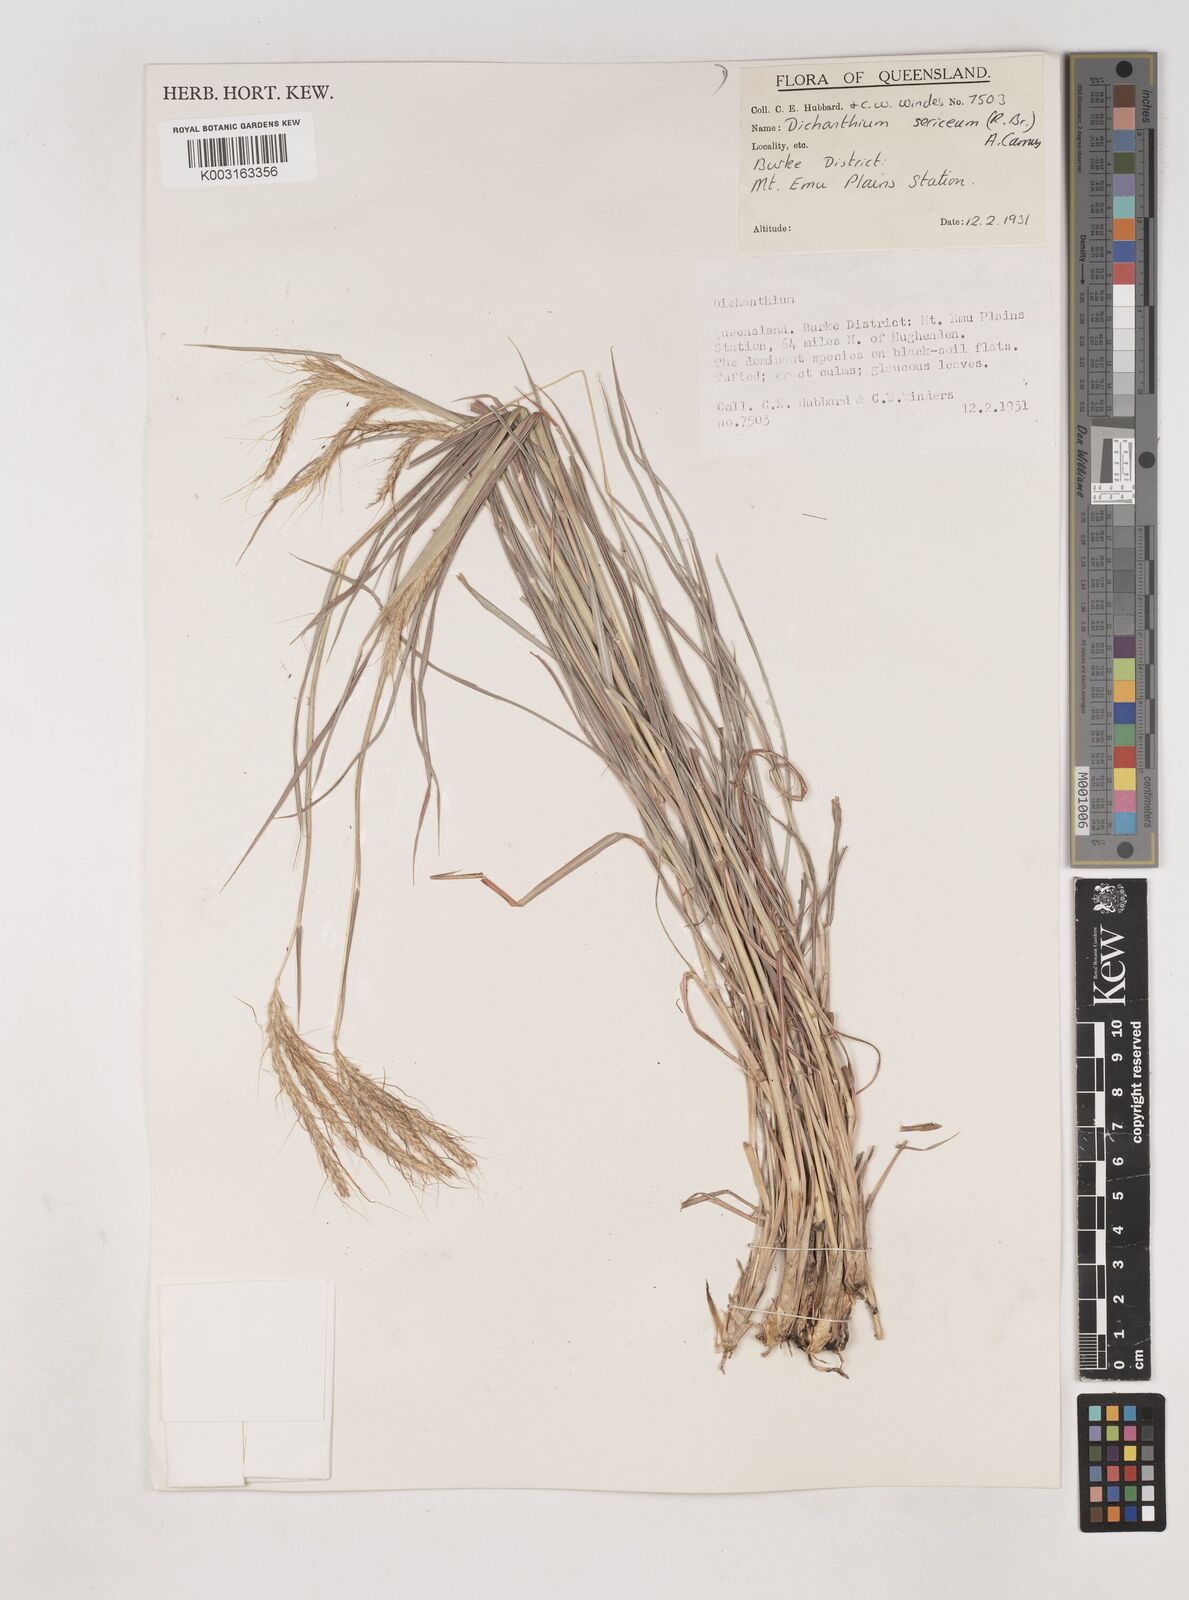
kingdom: Plantae
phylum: Tracheophyta
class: Liliopsida
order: Poales
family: Poaceae
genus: Dichanthium
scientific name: Dichanthium sericeum
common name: Silky bluestem
